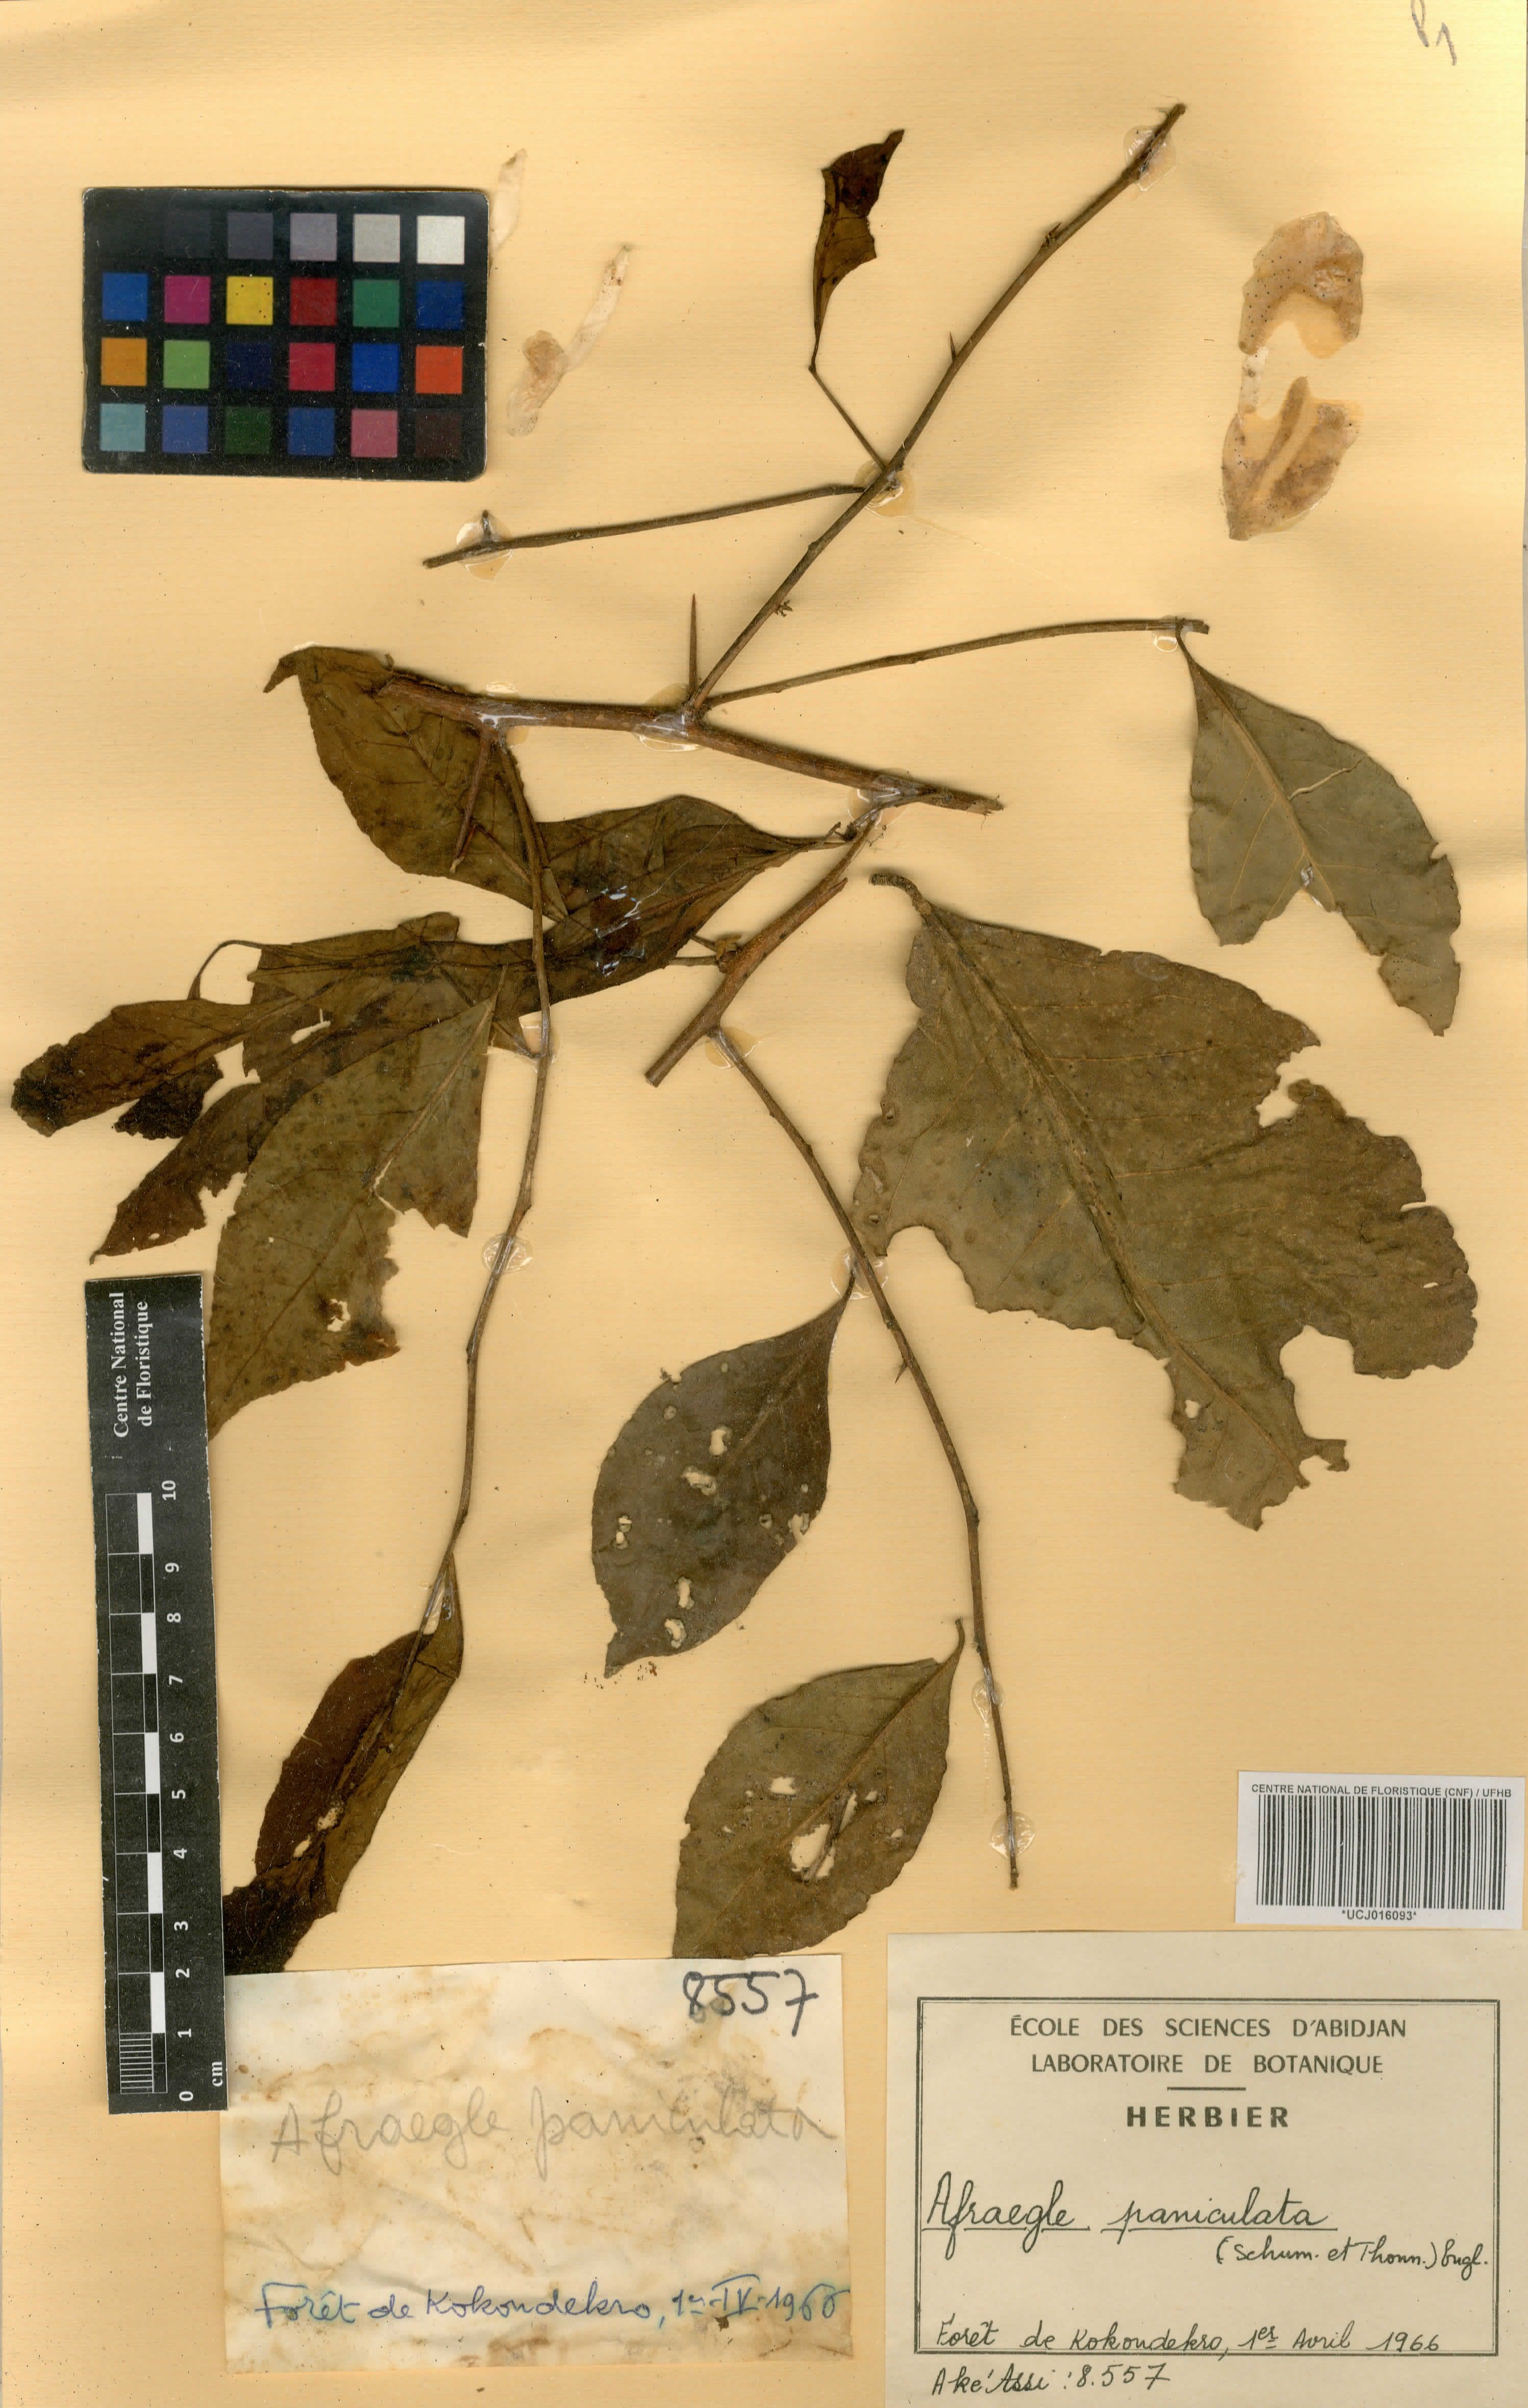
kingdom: Plantae
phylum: Tracheophyta
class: Magnoliopsida
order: Sapindales
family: Rutaceae
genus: Afraegle
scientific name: Afraegle paniculata
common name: Guin-guin
